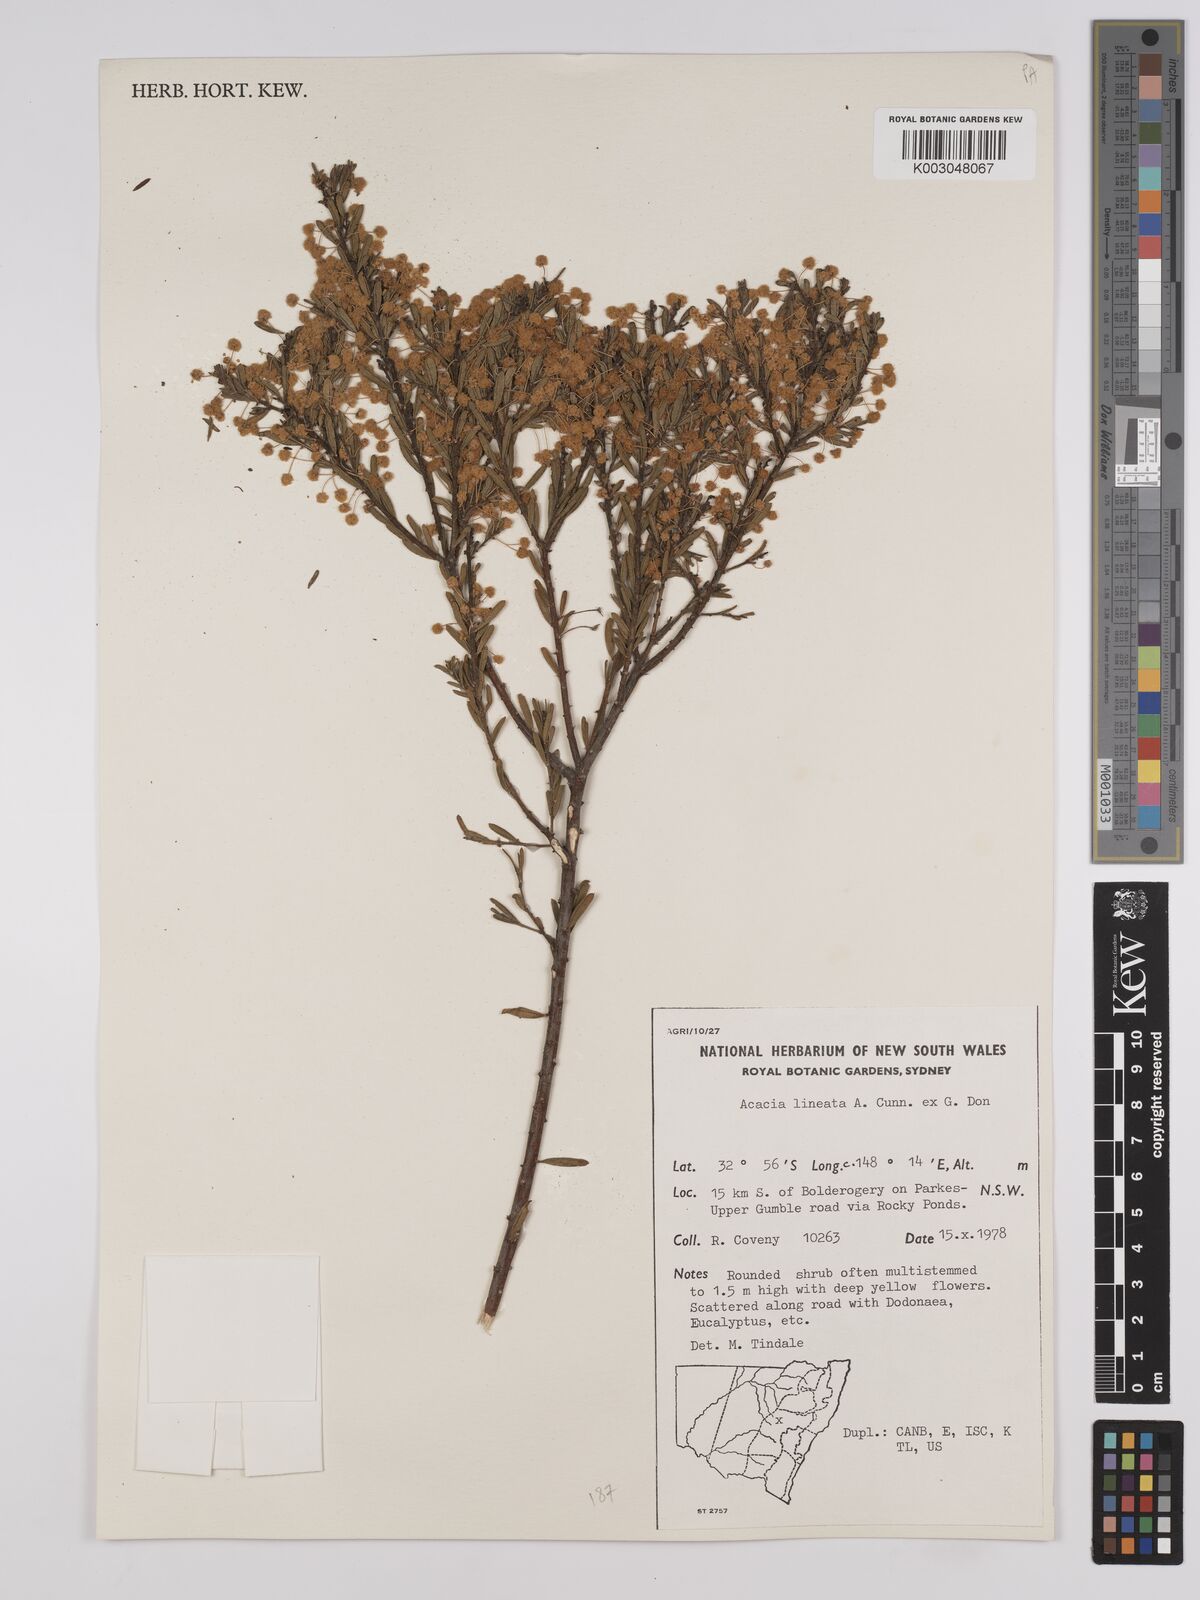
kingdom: Plantae
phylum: Tracheophyta
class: Magnoliopsida
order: Fabales
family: Fabaceae
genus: Acacia
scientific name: Acacia lineata
